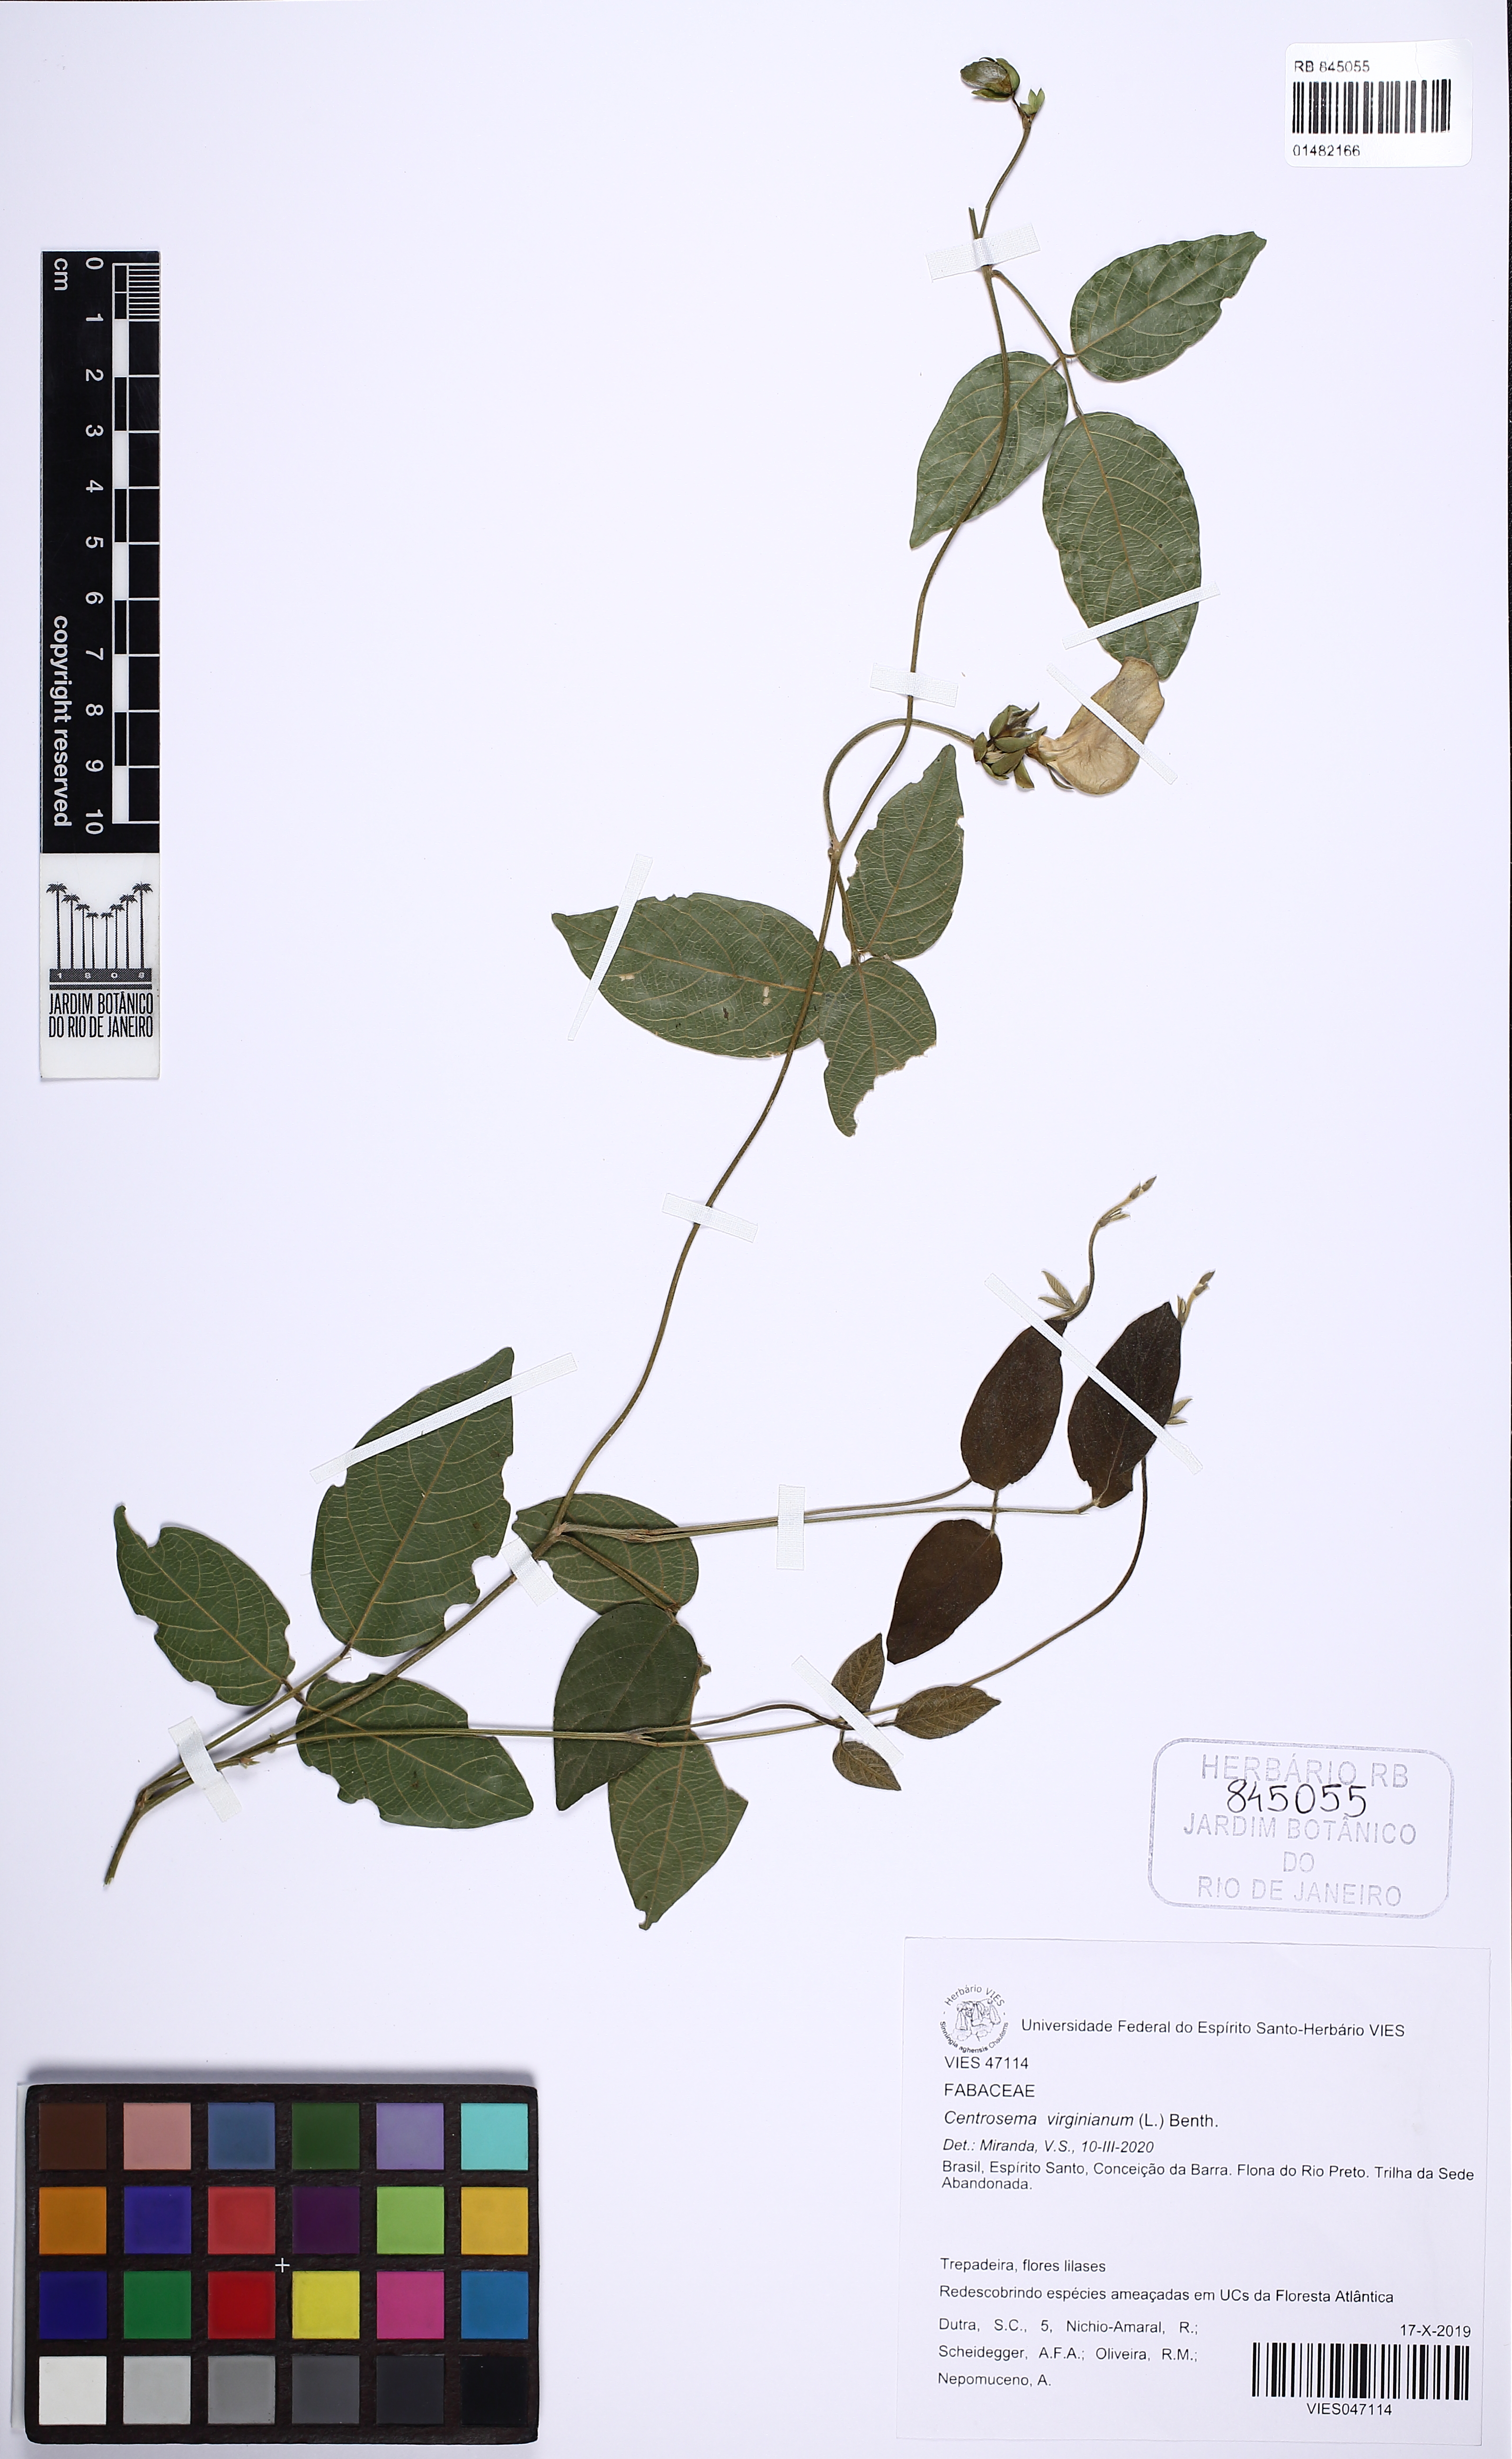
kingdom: Plantae
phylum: Tracheophyta
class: Magnoliopsida
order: Fabales
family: Fabaceae
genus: Centrosema
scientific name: Centrosema virginianum
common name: Butterfly-pea
